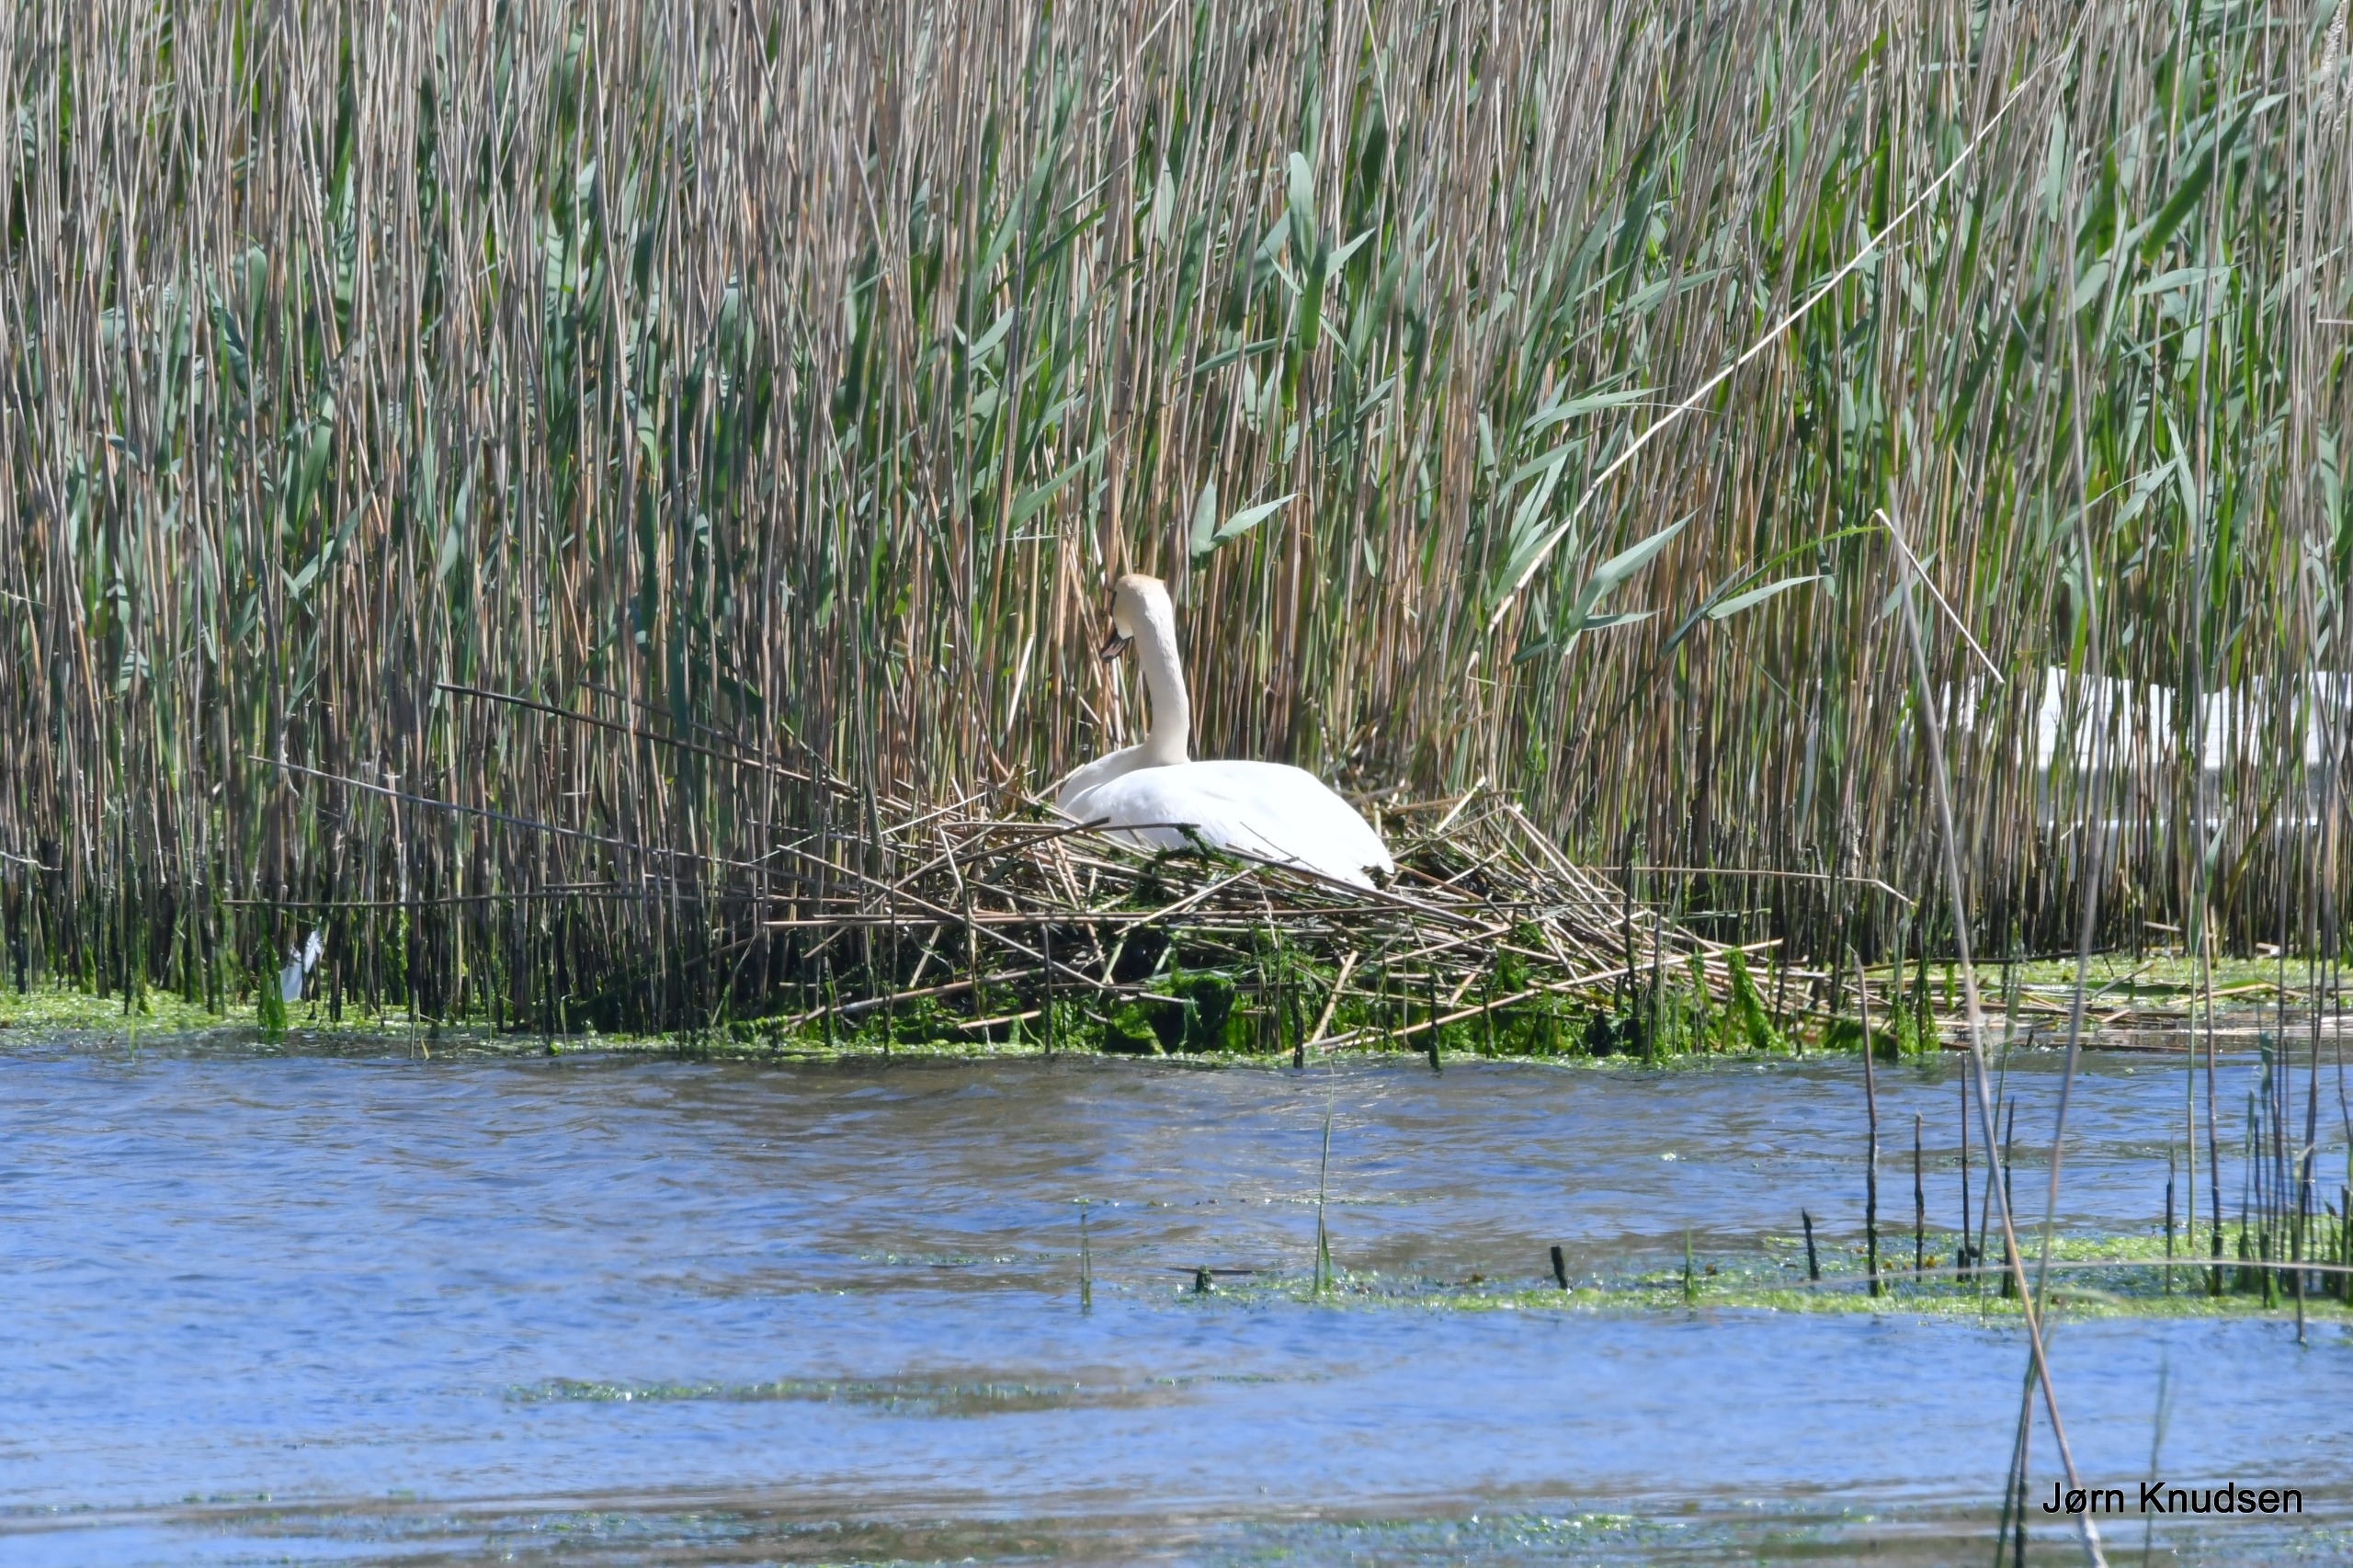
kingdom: Animalia
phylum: Chordata
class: Aves
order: Anseriformes
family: Anatidae
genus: Cygnus
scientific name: Cygnus olor
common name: Knopsvane
